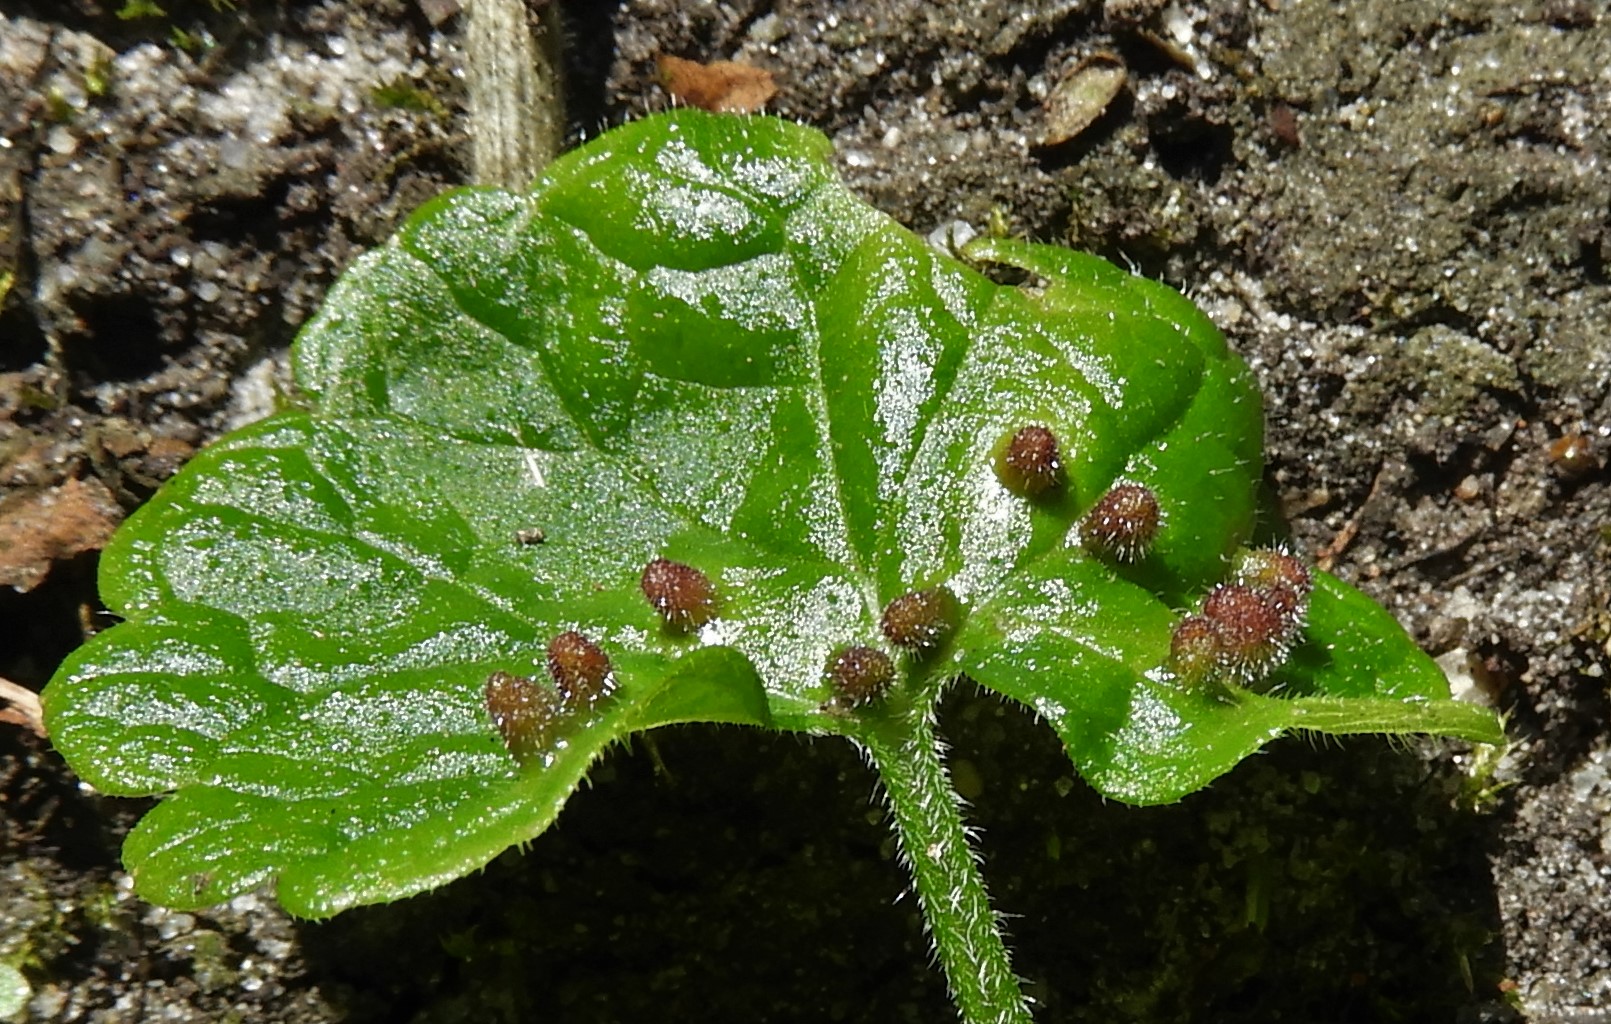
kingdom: Fungi
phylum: Basidiomycota
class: Pucciniomycetes
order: Pucciniales
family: Pucciniaceae
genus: Puccinia
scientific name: Puccinia glechomatis
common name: Ground ivy rust
